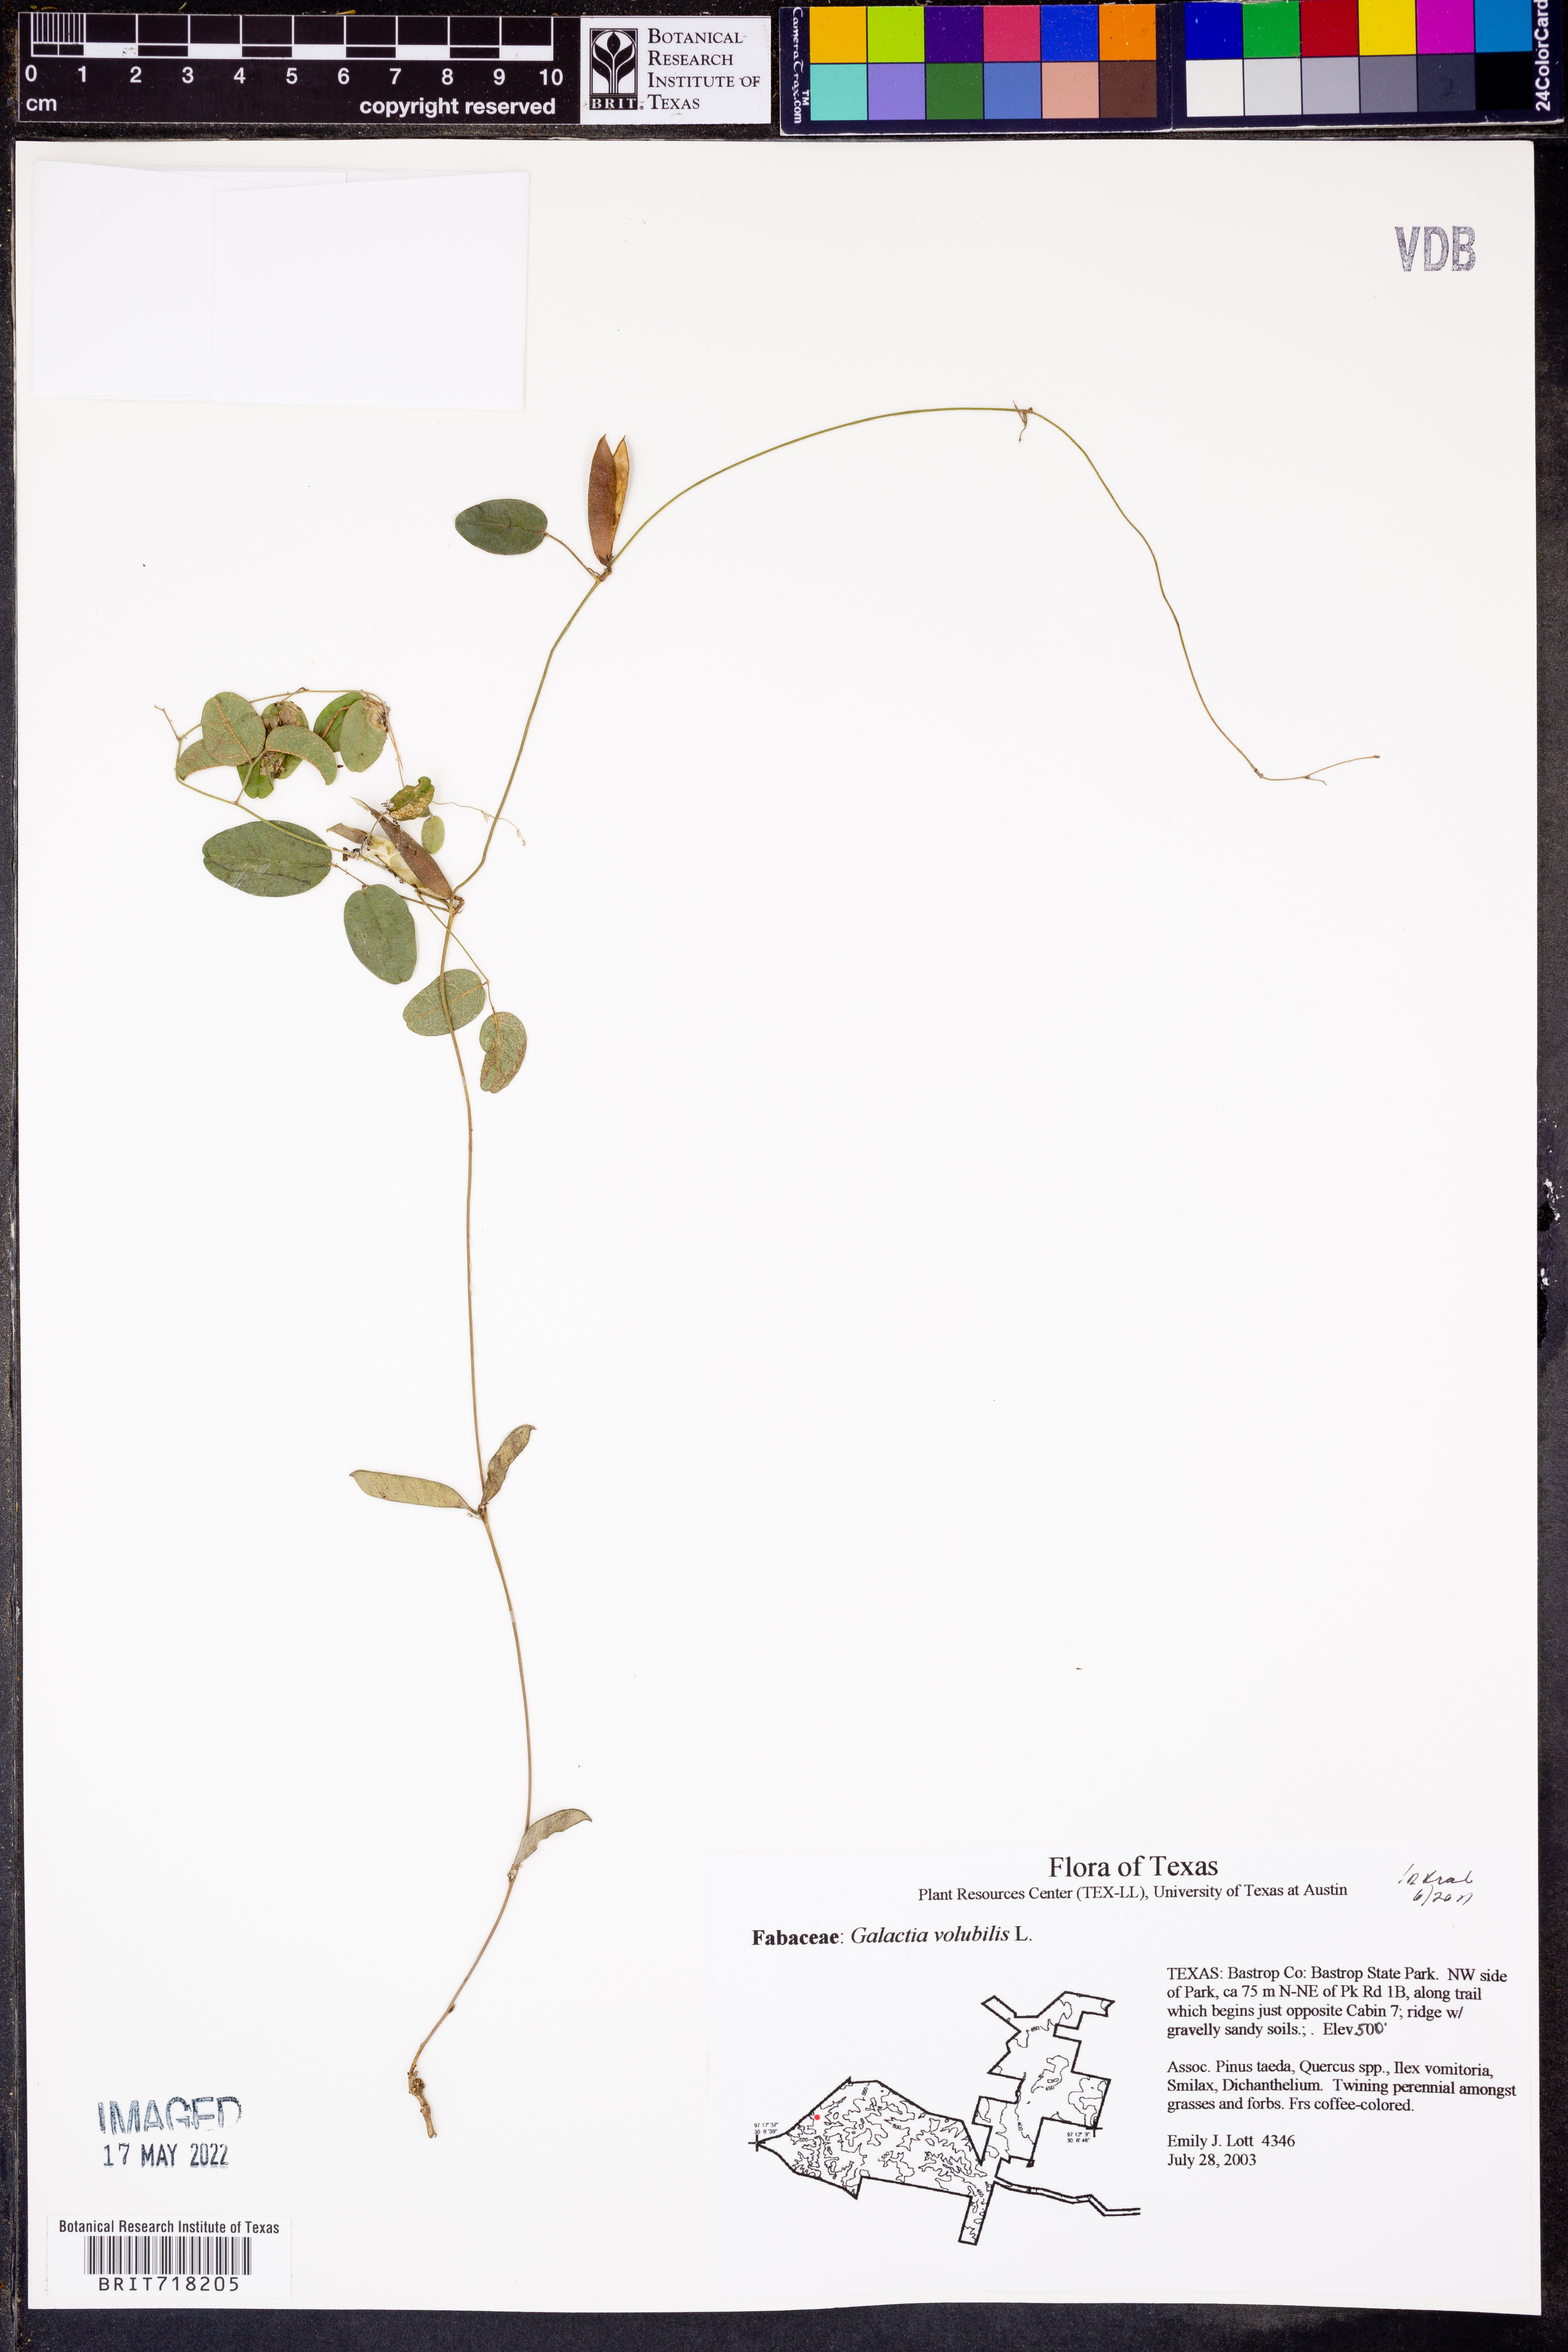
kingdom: Plantae
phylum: Tracheophyta
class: Magnoliopsida
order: Fabales
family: Fabaceae
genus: Galactia
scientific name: Galactia volubilis
